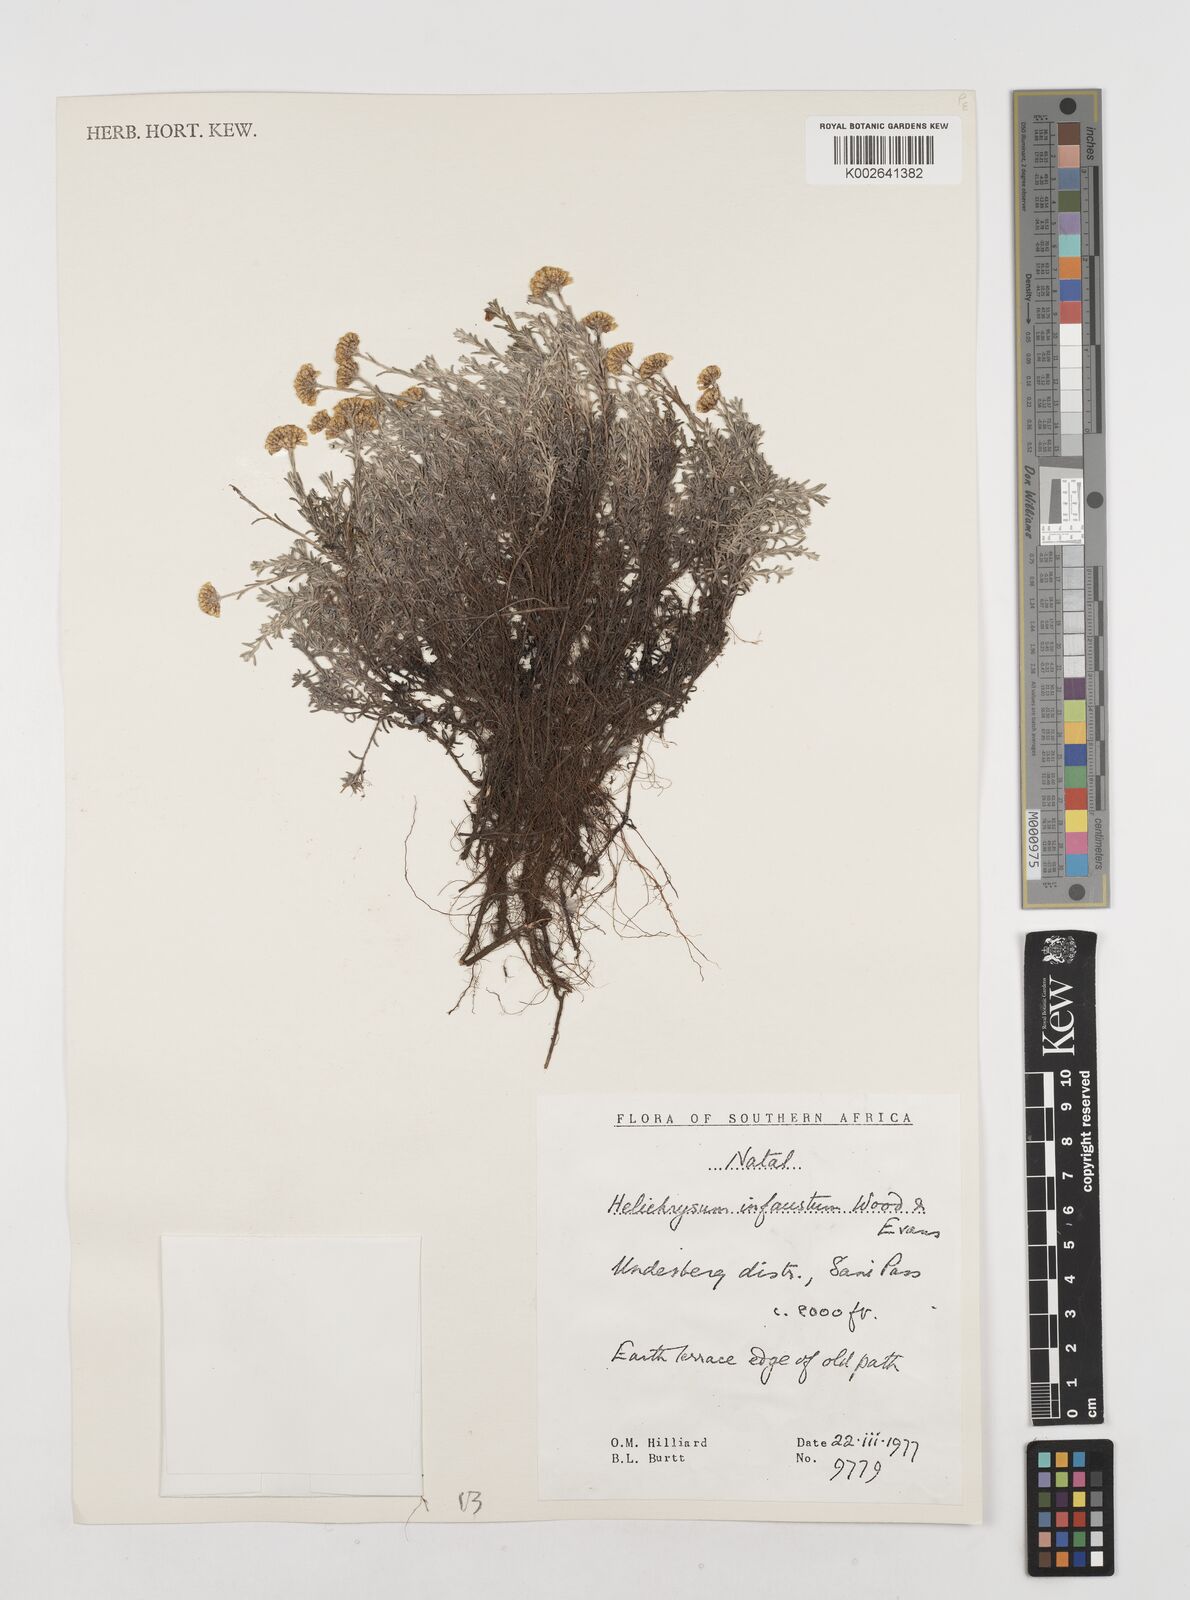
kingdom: Plantae
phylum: Tracheophyta
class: Magnoliopsida
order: Asterales
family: Asteraceae
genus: Calomeria
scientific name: Calomeria infausta
